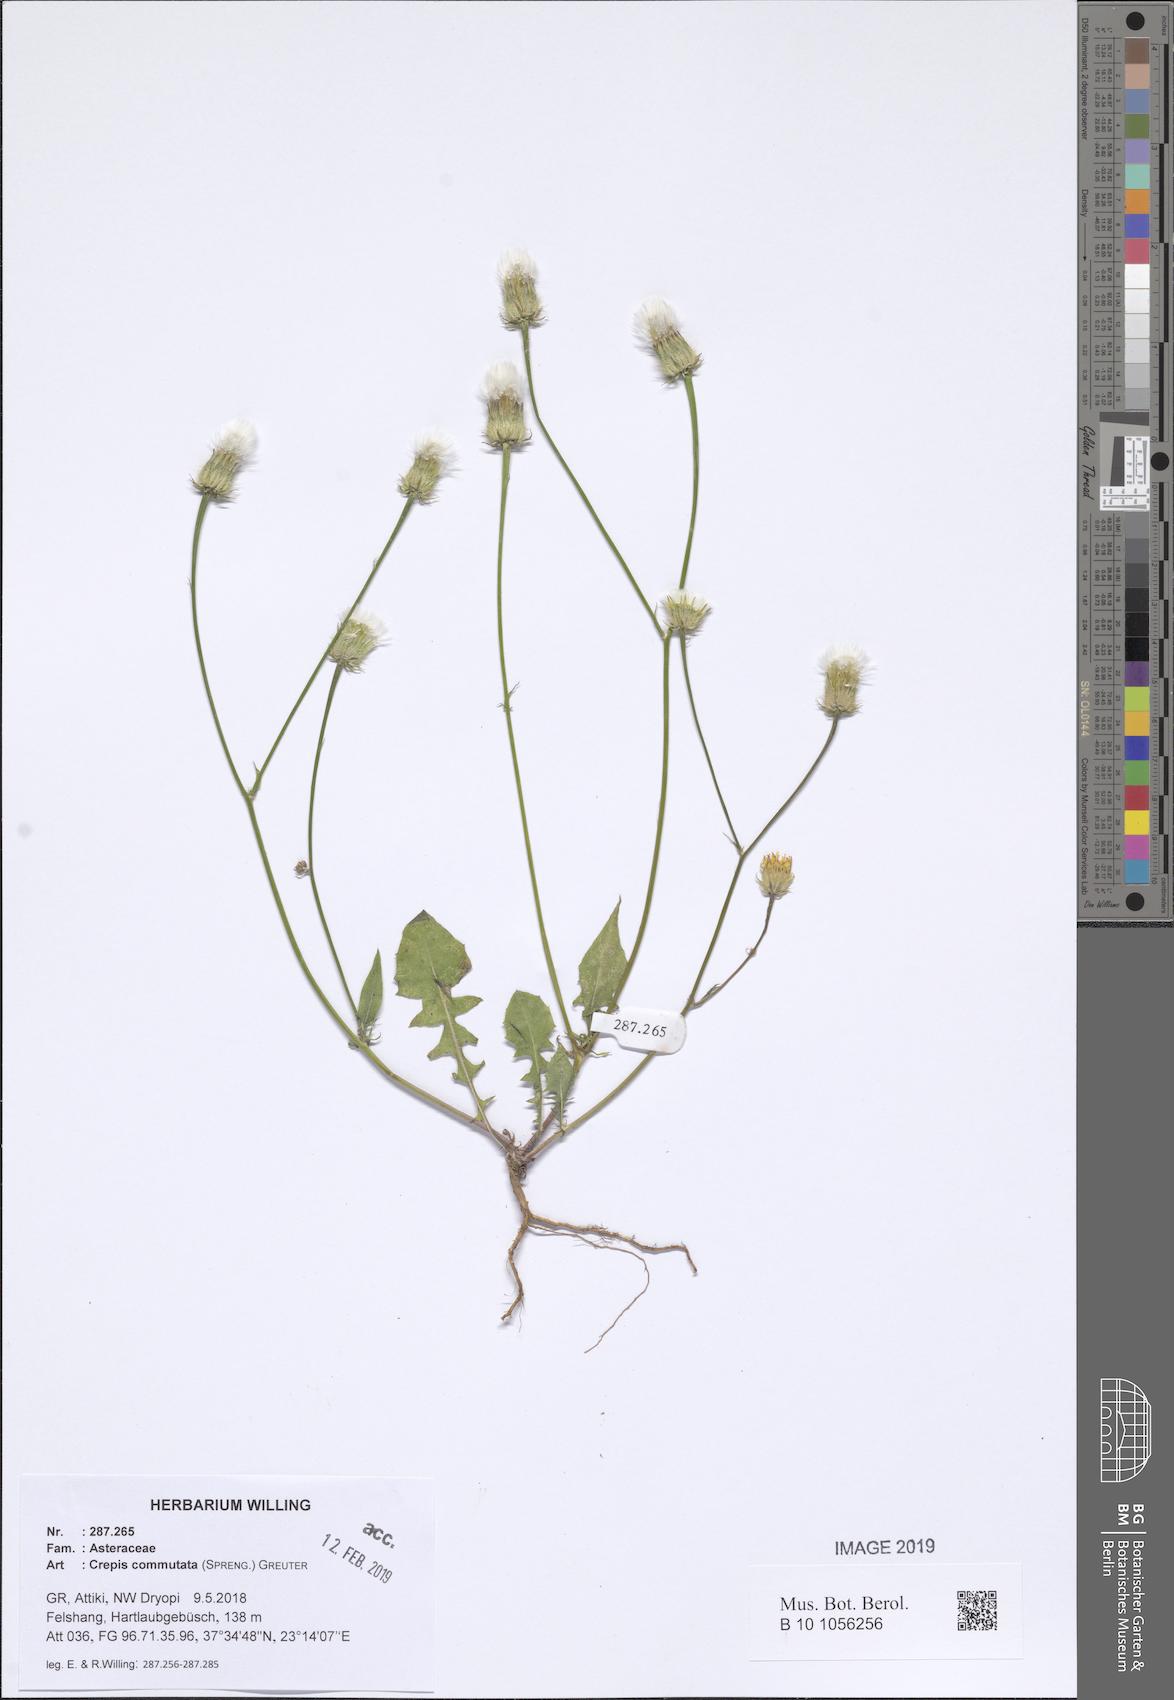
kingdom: Plantae
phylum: Tracheophyta
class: Magnoliopsida
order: Asterales
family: Asteraceae
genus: Crepis
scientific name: Crepis commutata
